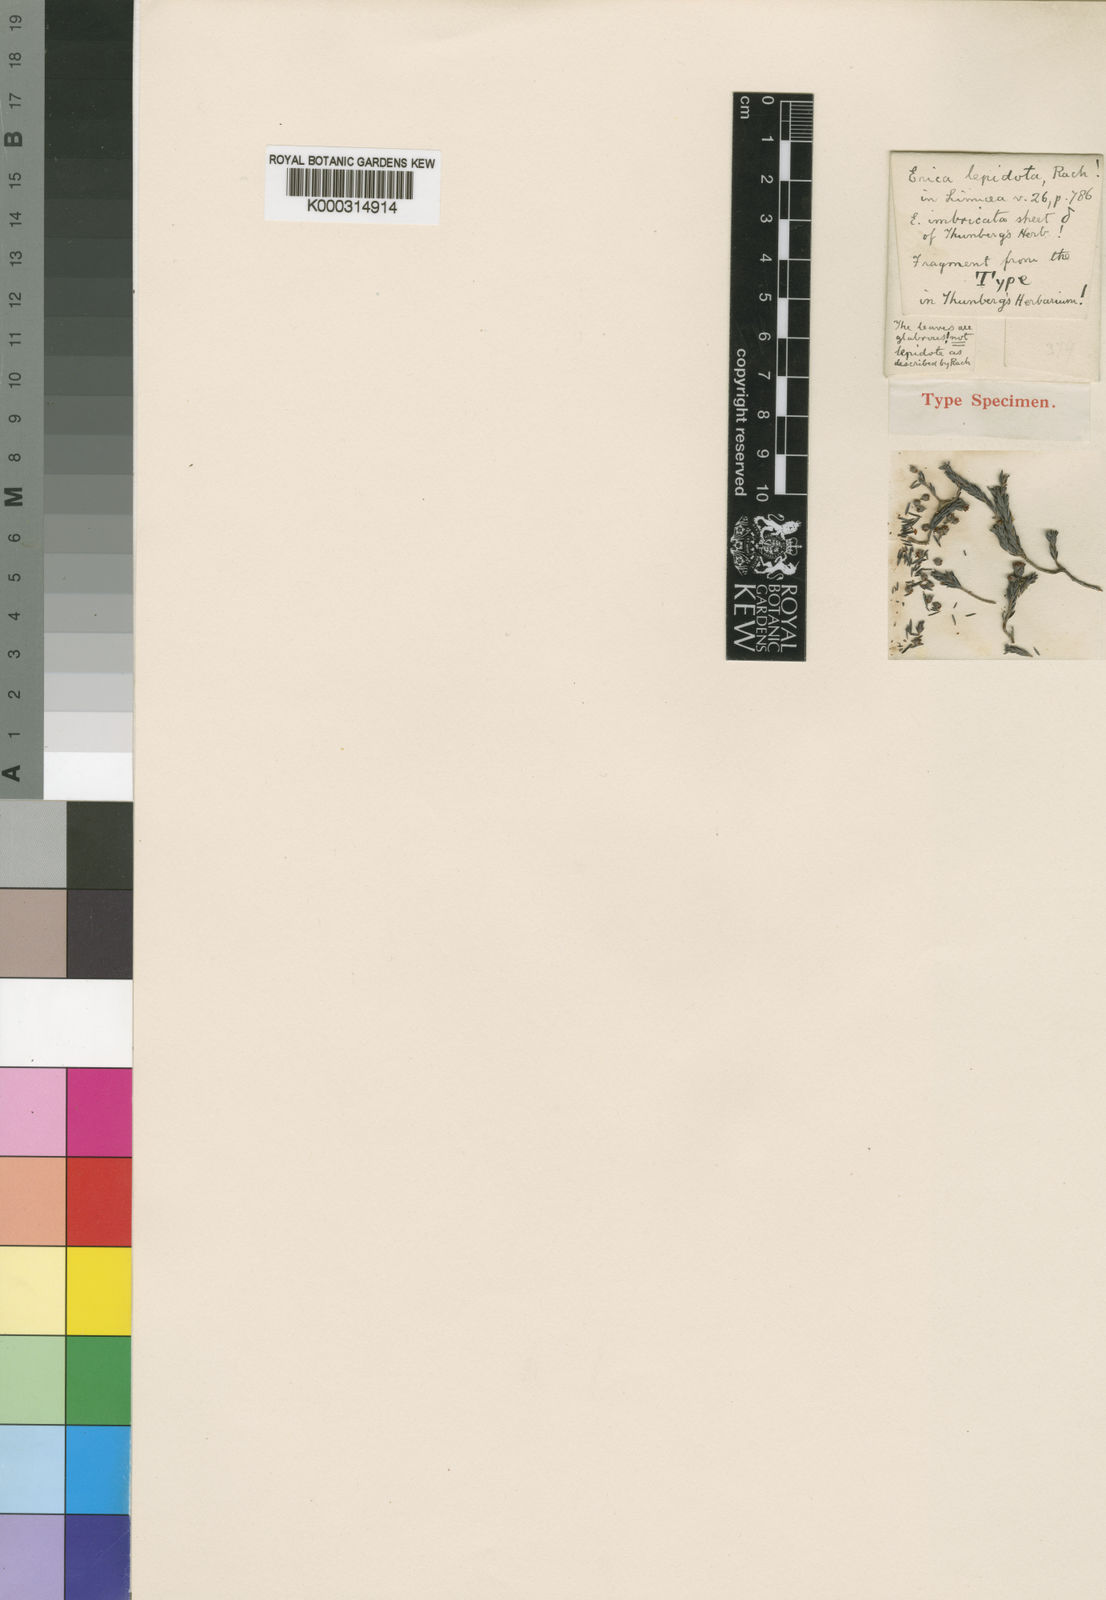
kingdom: Plantae
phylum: Tracheophyta
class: Magnoliopsida
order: Ericales
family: Ericaceae
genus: Erica
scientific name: Erica lepidota
